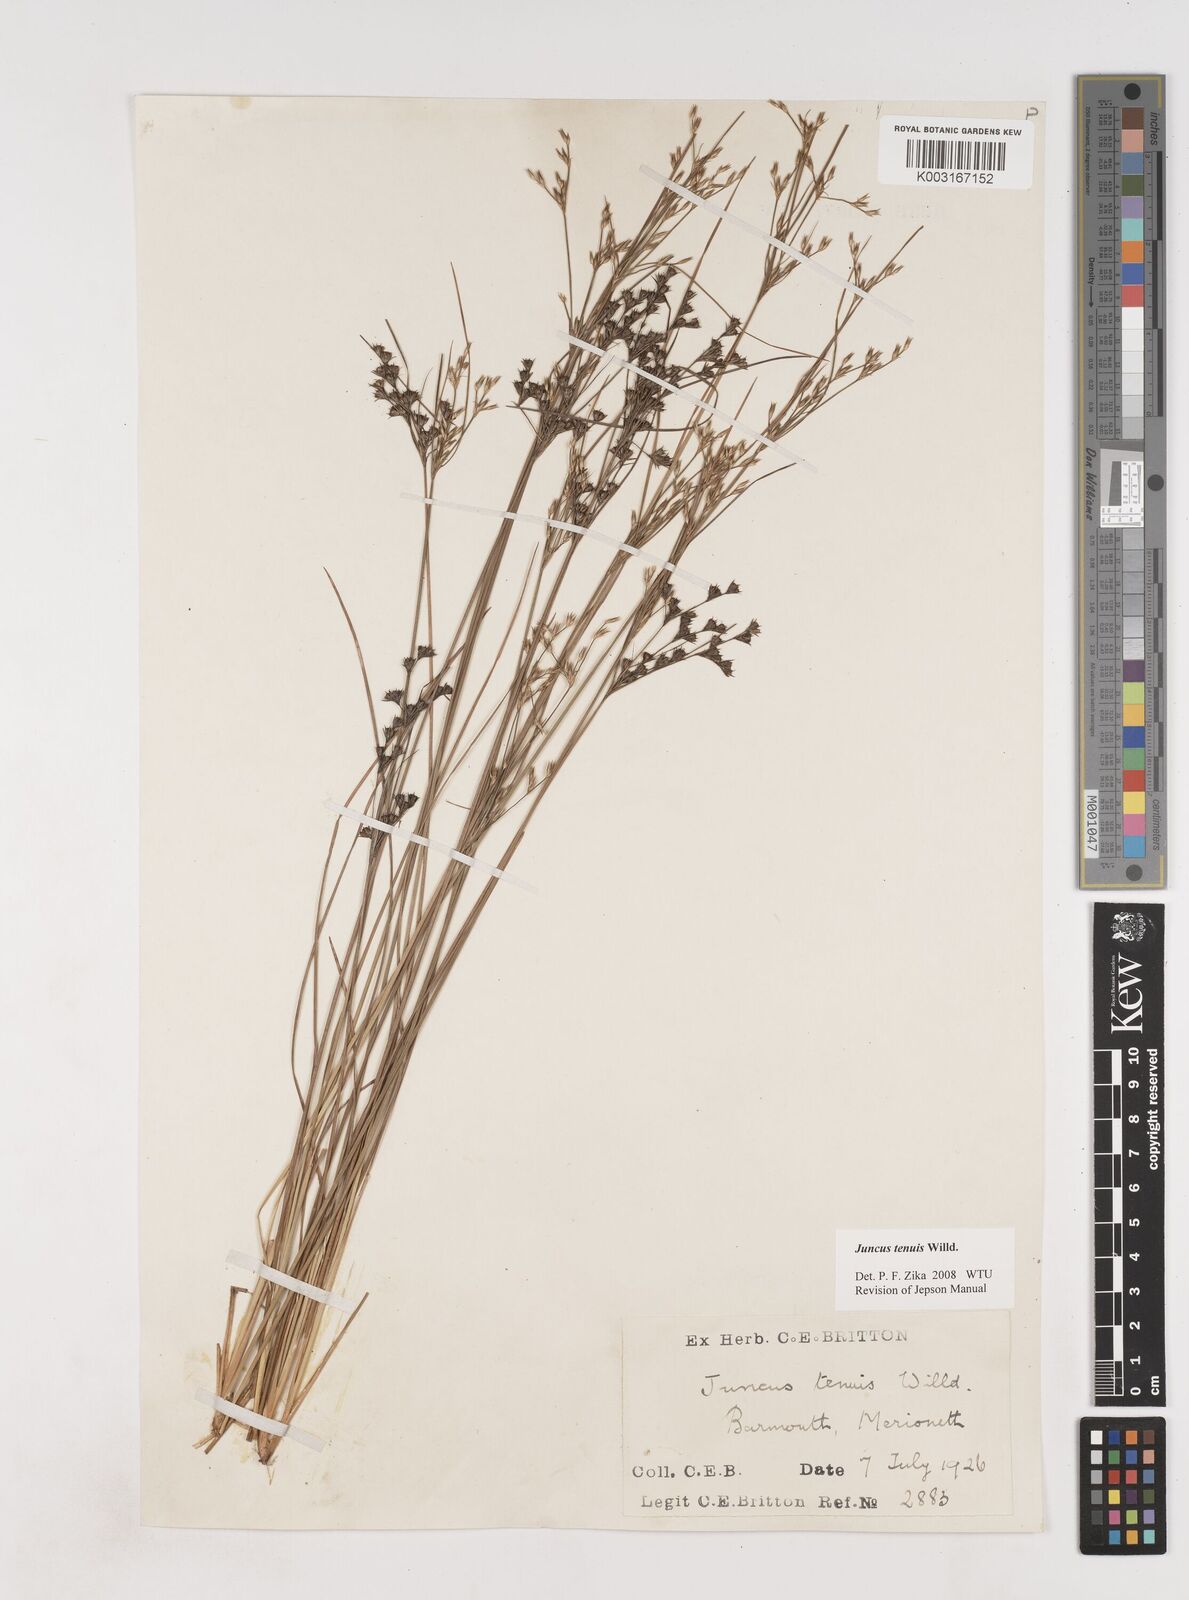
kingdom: Plantae
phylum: Tracheophyta
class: Liliopsida
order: Poales
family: Juncaceae
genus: Juncus
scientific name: Juncus tenuis
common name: Slender rush
